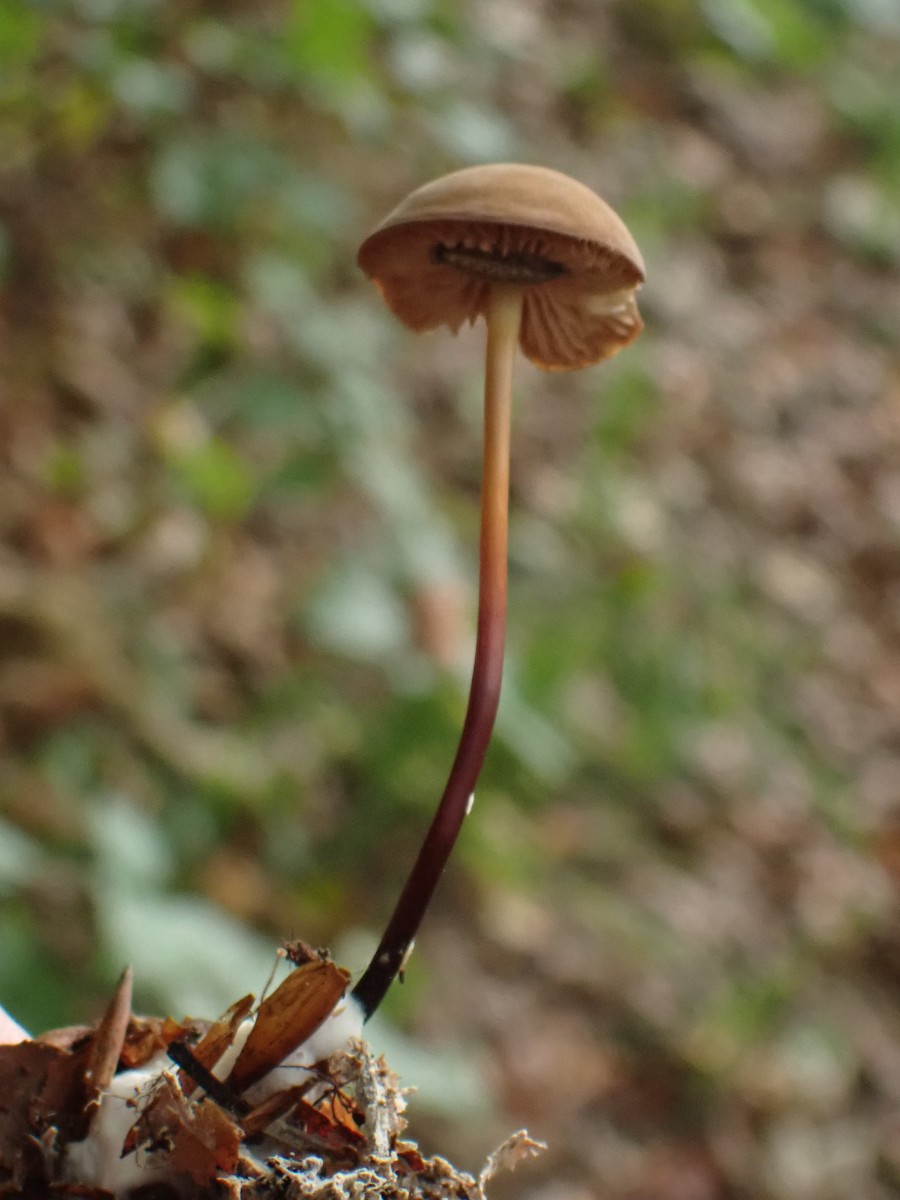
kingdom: Fungi
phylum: Basidiomycota
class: Agaricomycetes
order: Agaricales
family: Marasmiaceae
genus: Marasmius
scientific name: Marasmius cohaerens
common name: hornstokket bruskhat
